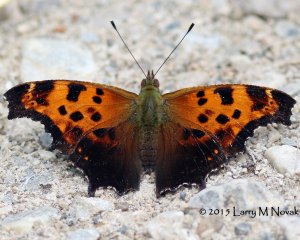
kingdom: Animalia
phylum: Arthropoda
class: Insecta
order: Lepidoptera
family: Nymphalidae
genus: Polygonia
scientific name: Polygonia comma
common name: Eastern Comma
